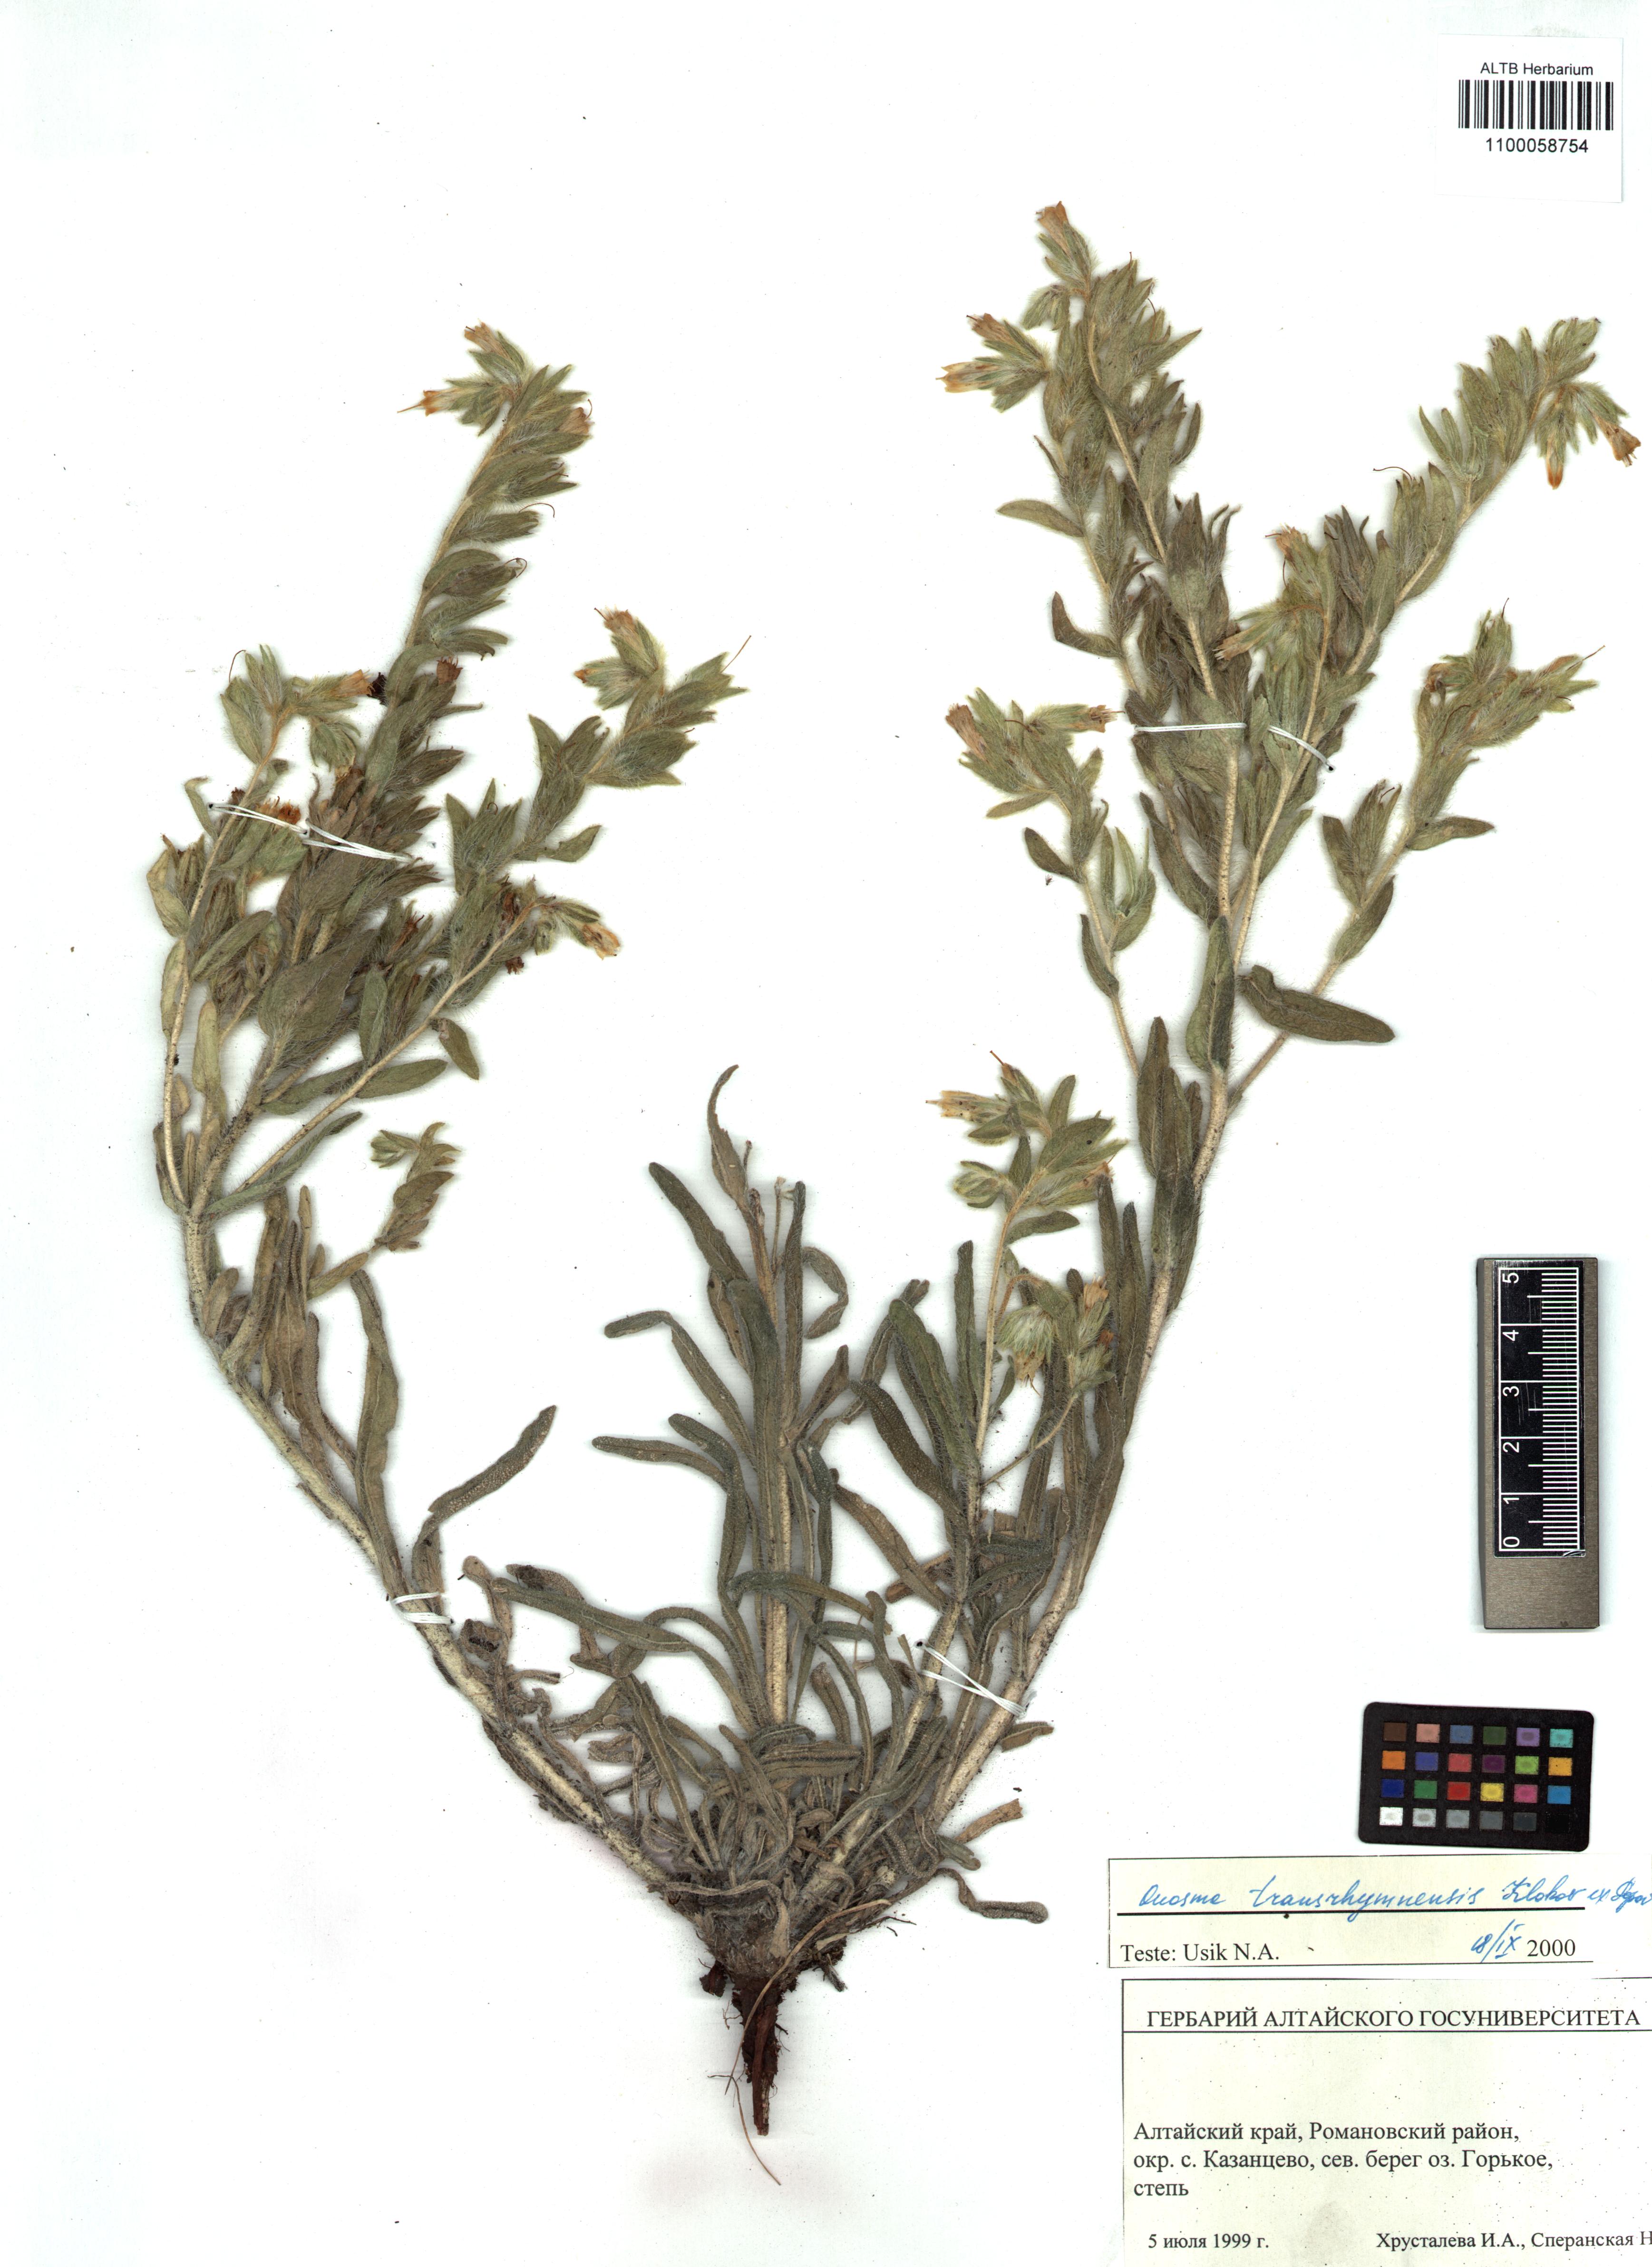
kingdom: Plantae
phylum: Tracheophyta
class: Magnoliopsida
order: Boraginales
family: Boraginaceae
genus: Onosma
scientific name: Onosma setosa
